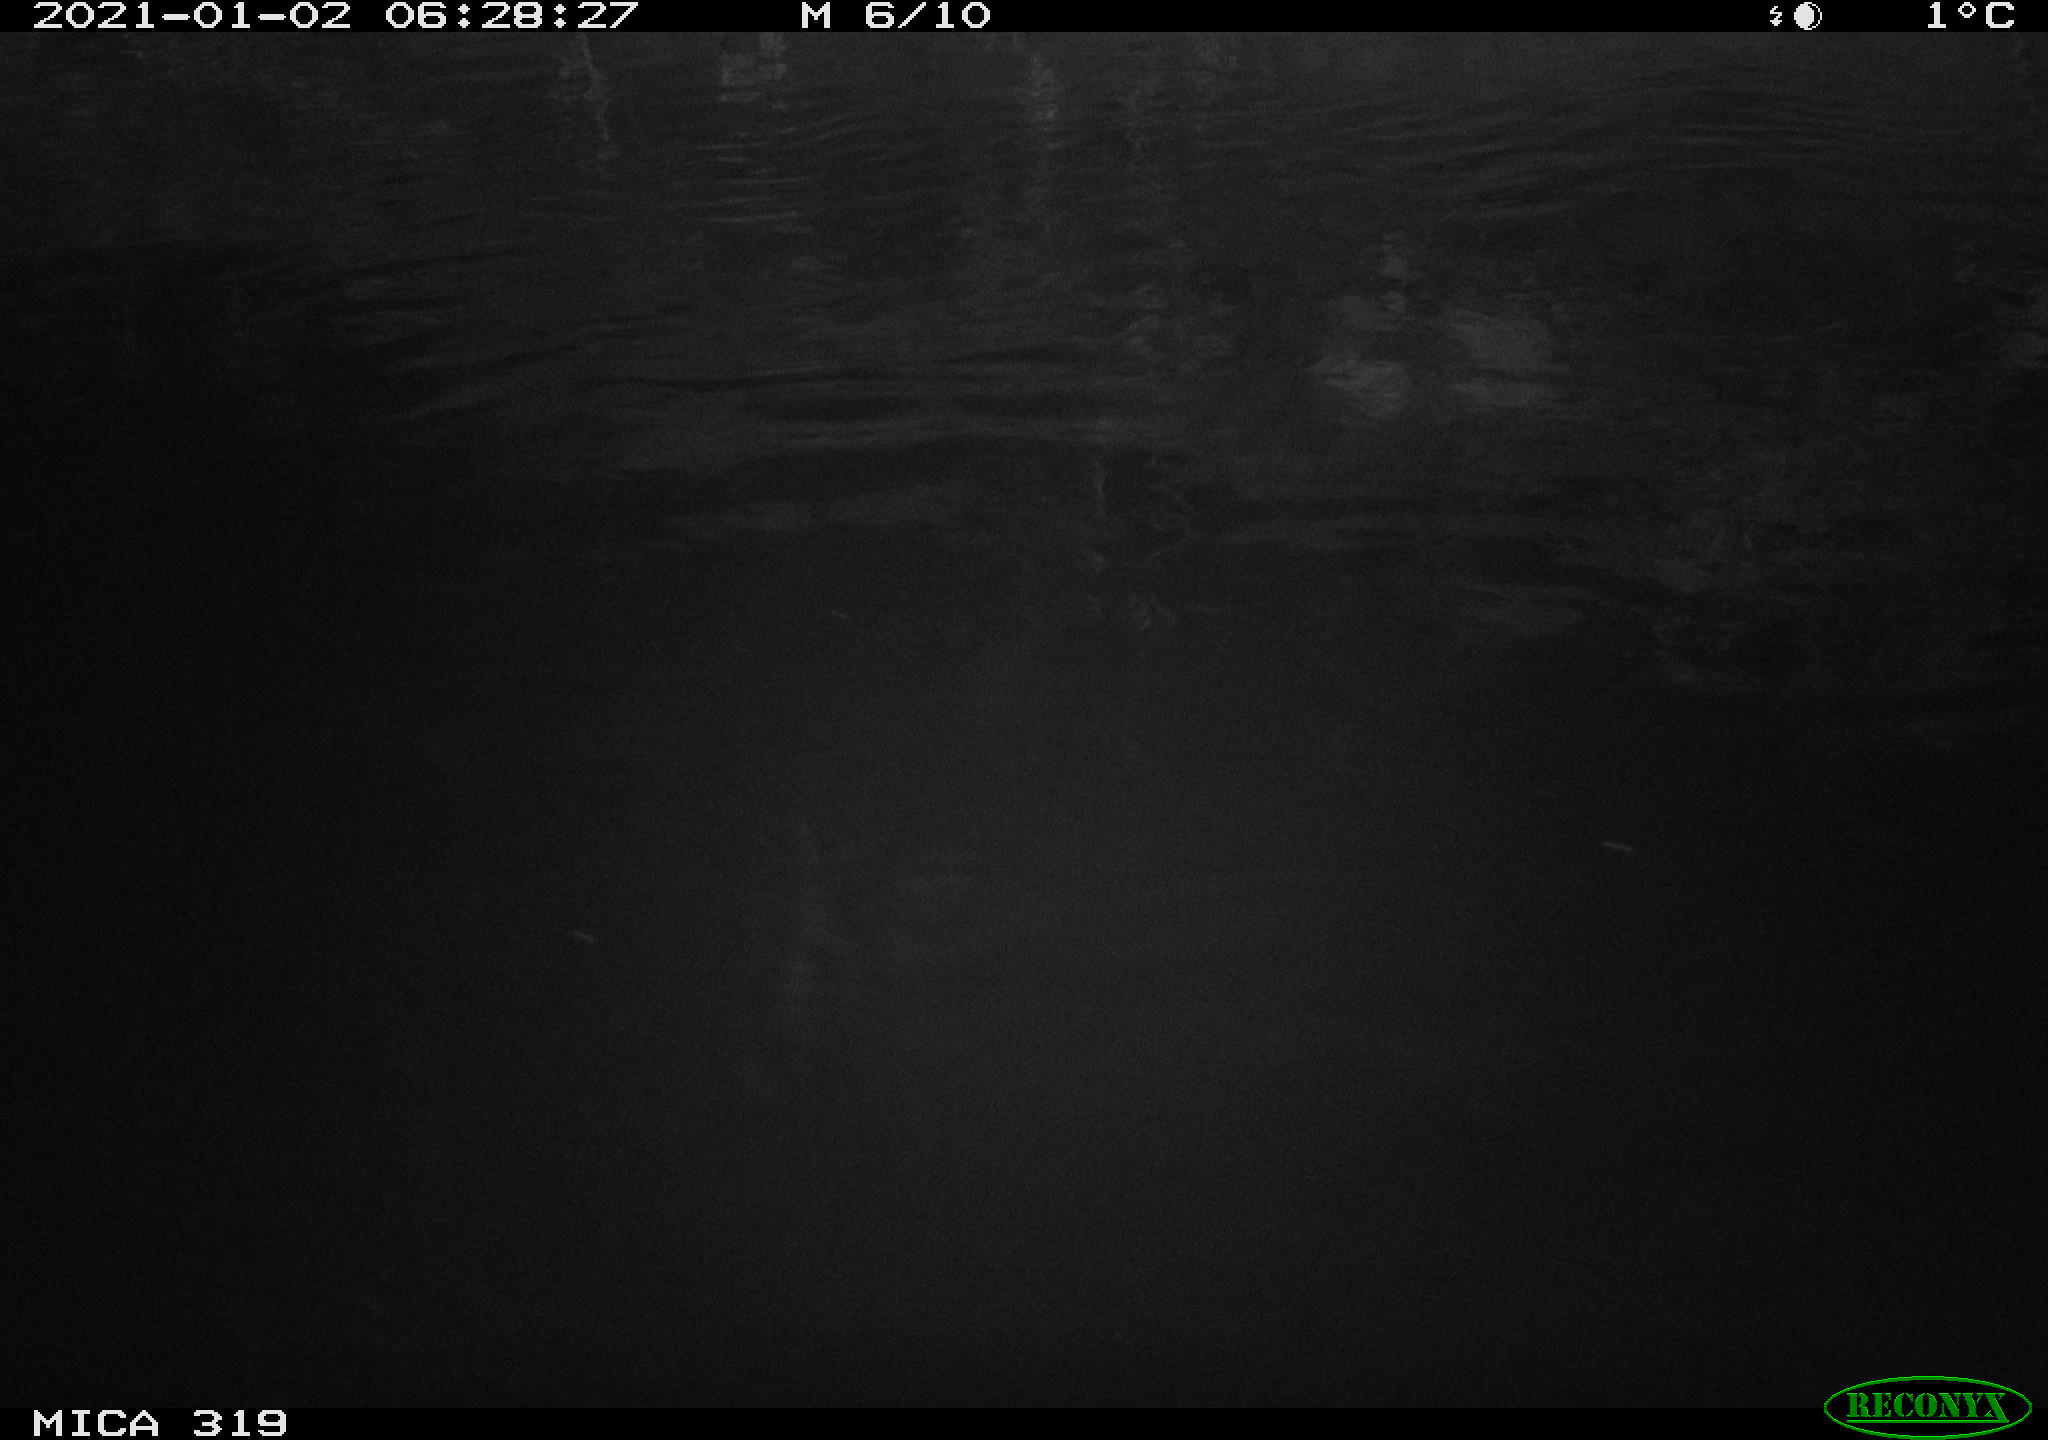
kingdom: Animalia
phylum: Chordata
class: Aves
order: Anseriformes
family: Anatidae
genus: Anas
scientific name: Anas
